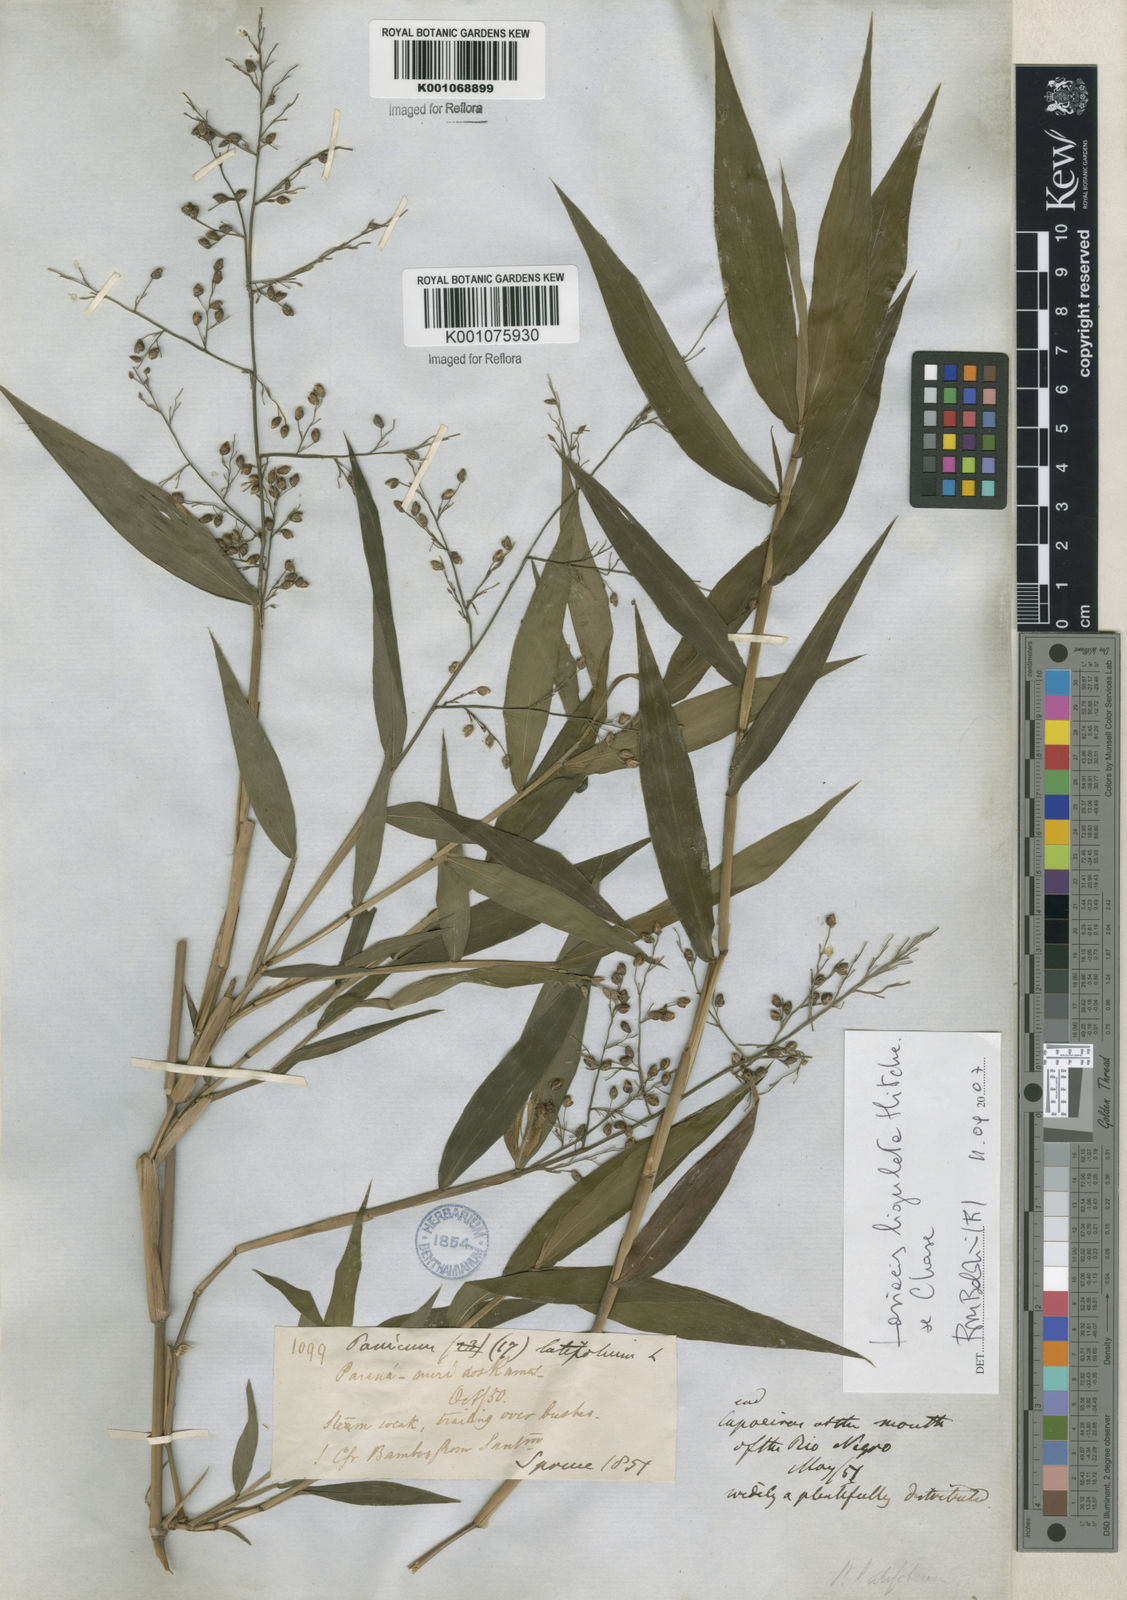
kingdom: Plantae
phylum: Tracheophyta
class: Liliopsida
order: Poales
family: Poaceae
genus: Lasiacis
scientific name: Lasiacis ligulata
